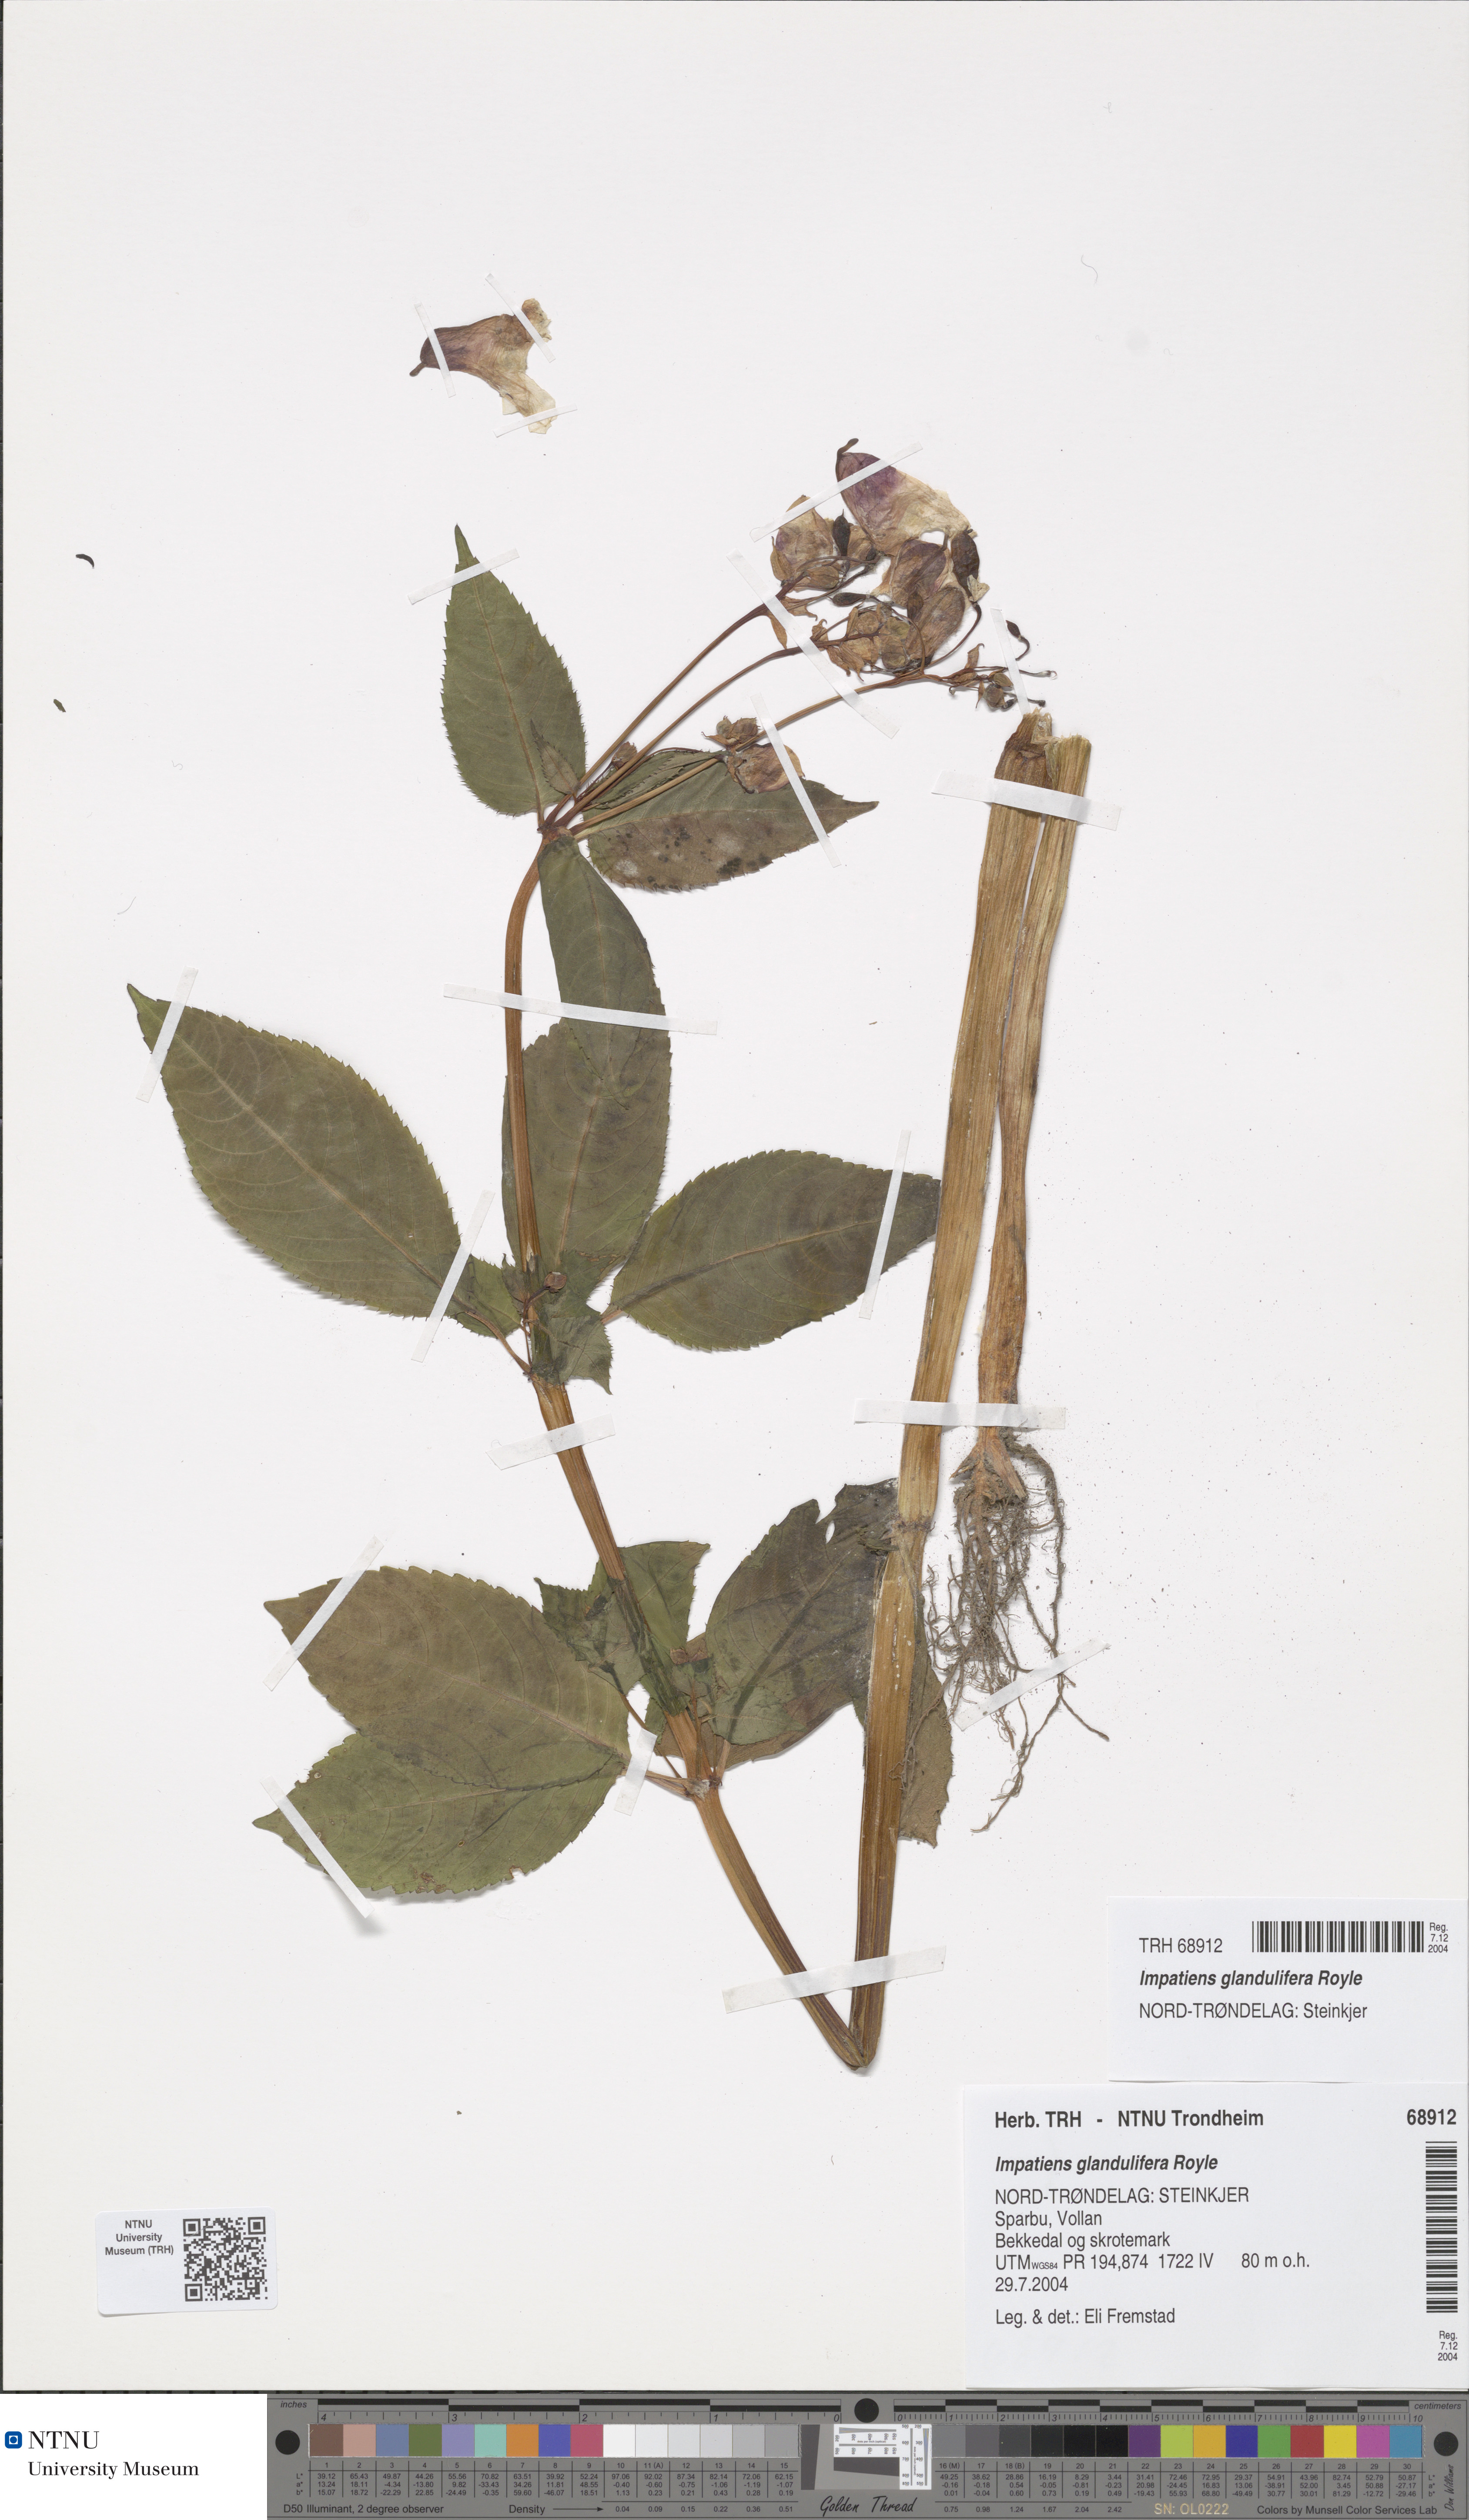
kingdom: Plantae
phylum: Tracheophyta
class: Magnoliopsida
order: Ericales
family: Balsaminaceae
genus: Impatiens
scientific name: Impatiens glandulifera
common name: Himalayan balsam
